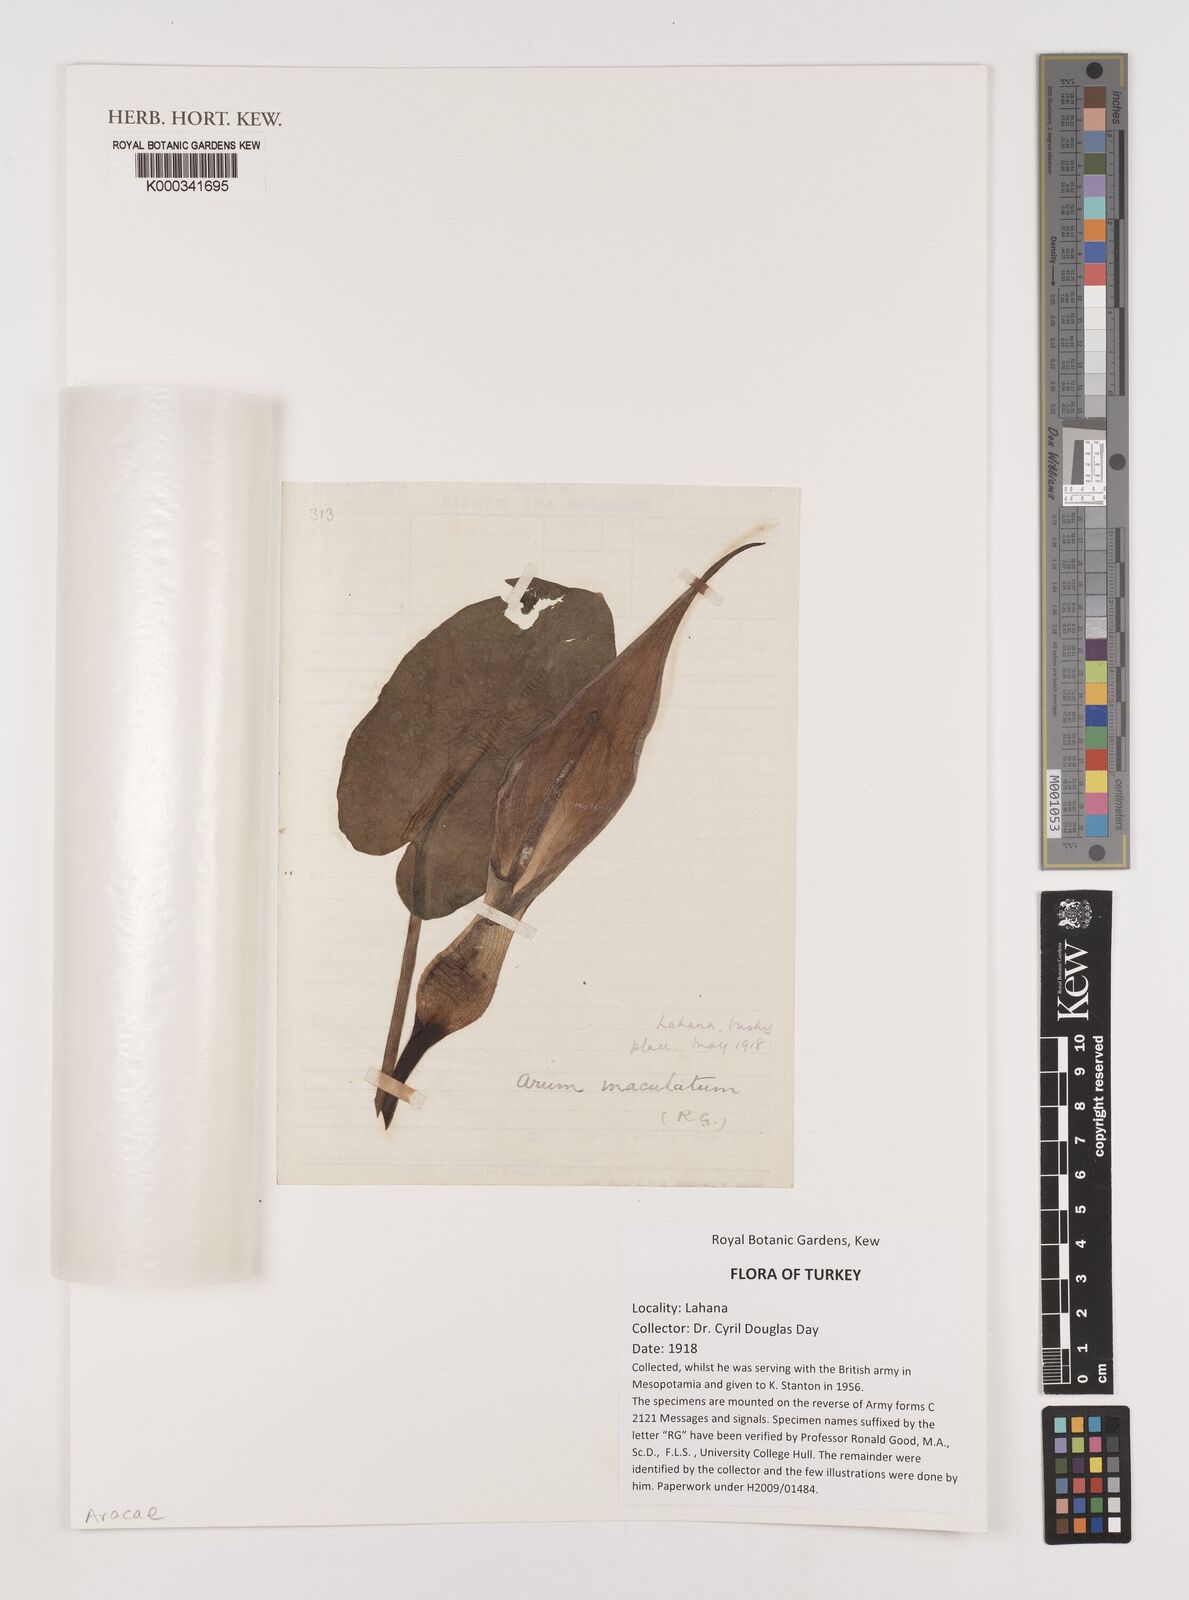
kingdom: Plantae
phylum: Tracheophyta
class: Liliopsida
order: Alismatales
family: Araceae
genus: Arum
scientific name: Arum maculatum
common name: Lords-and-ladies
